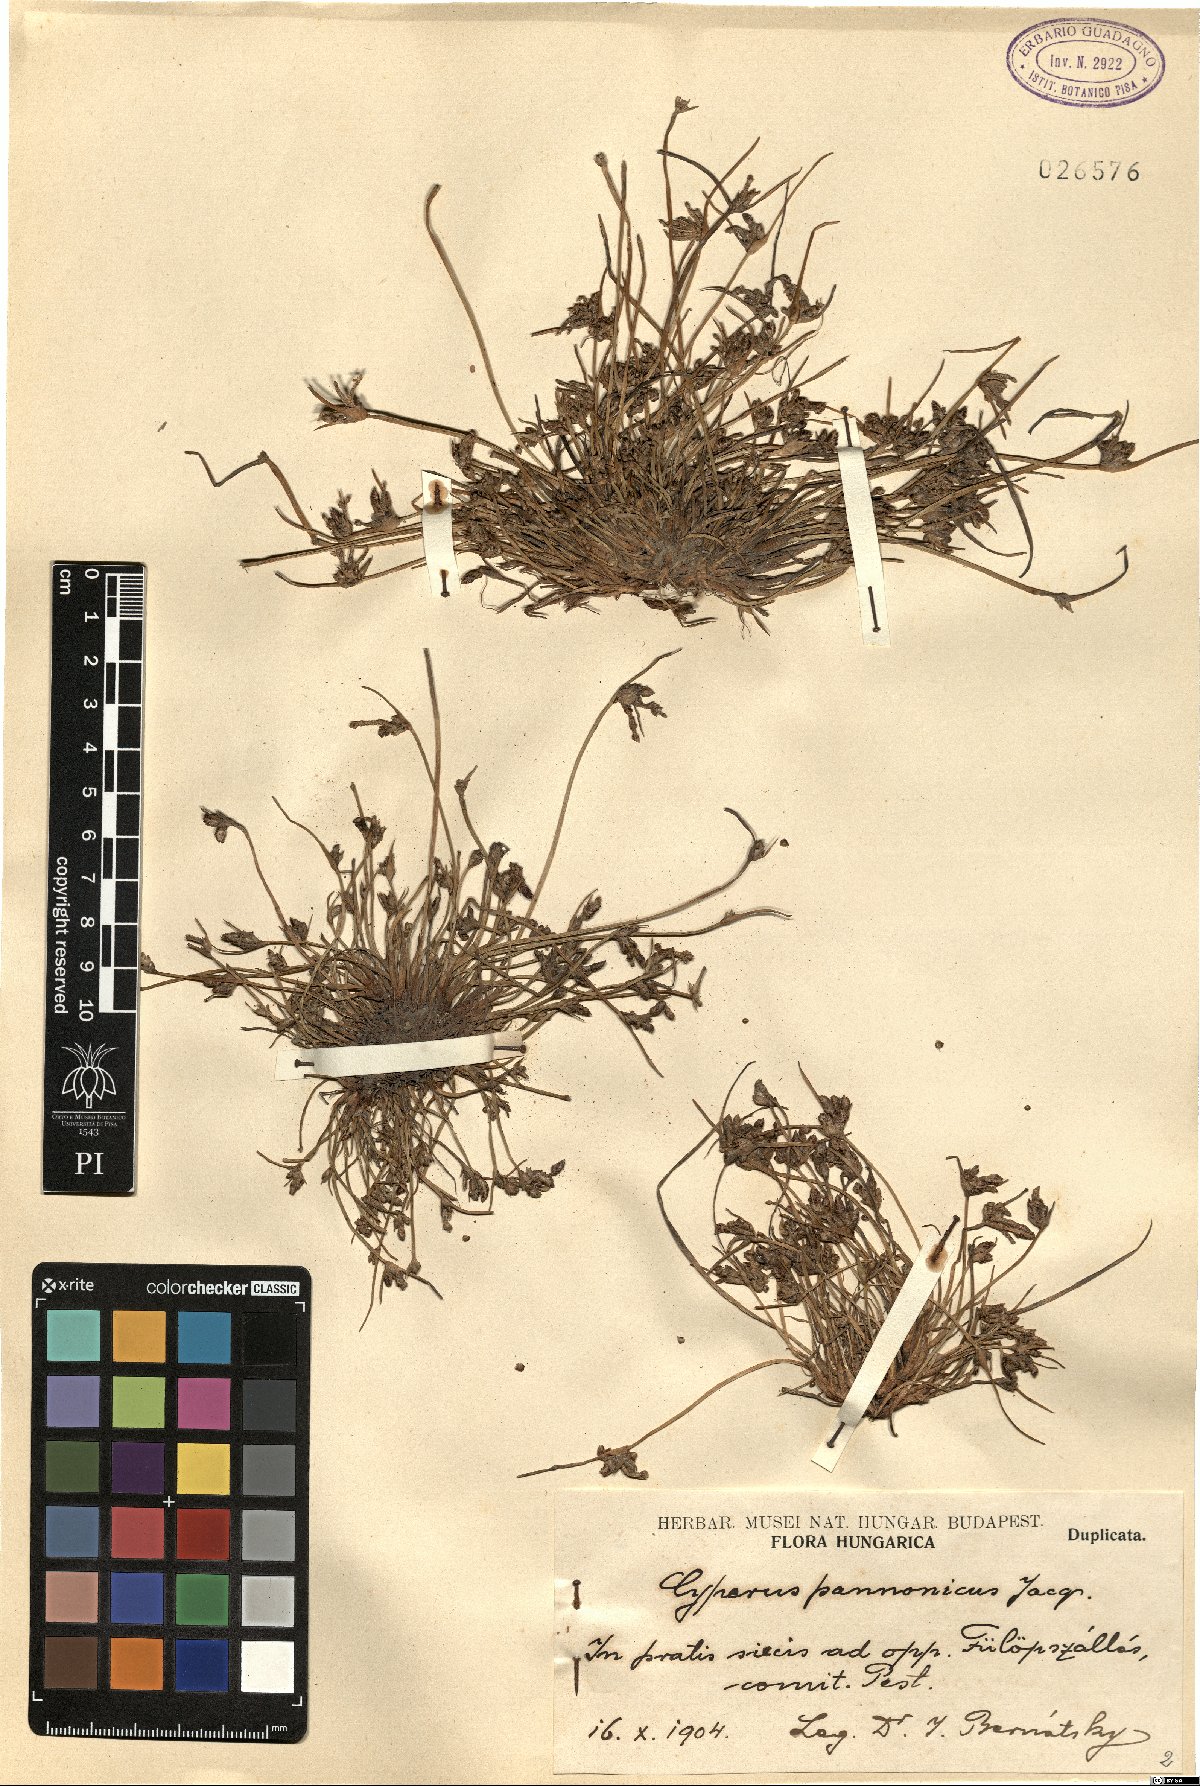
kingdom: Plantae
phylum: Tracheophyta
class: Liliopsida
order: Poales
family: Cyperaceae
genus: Cyperus
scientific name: Cyperus pannonicus
